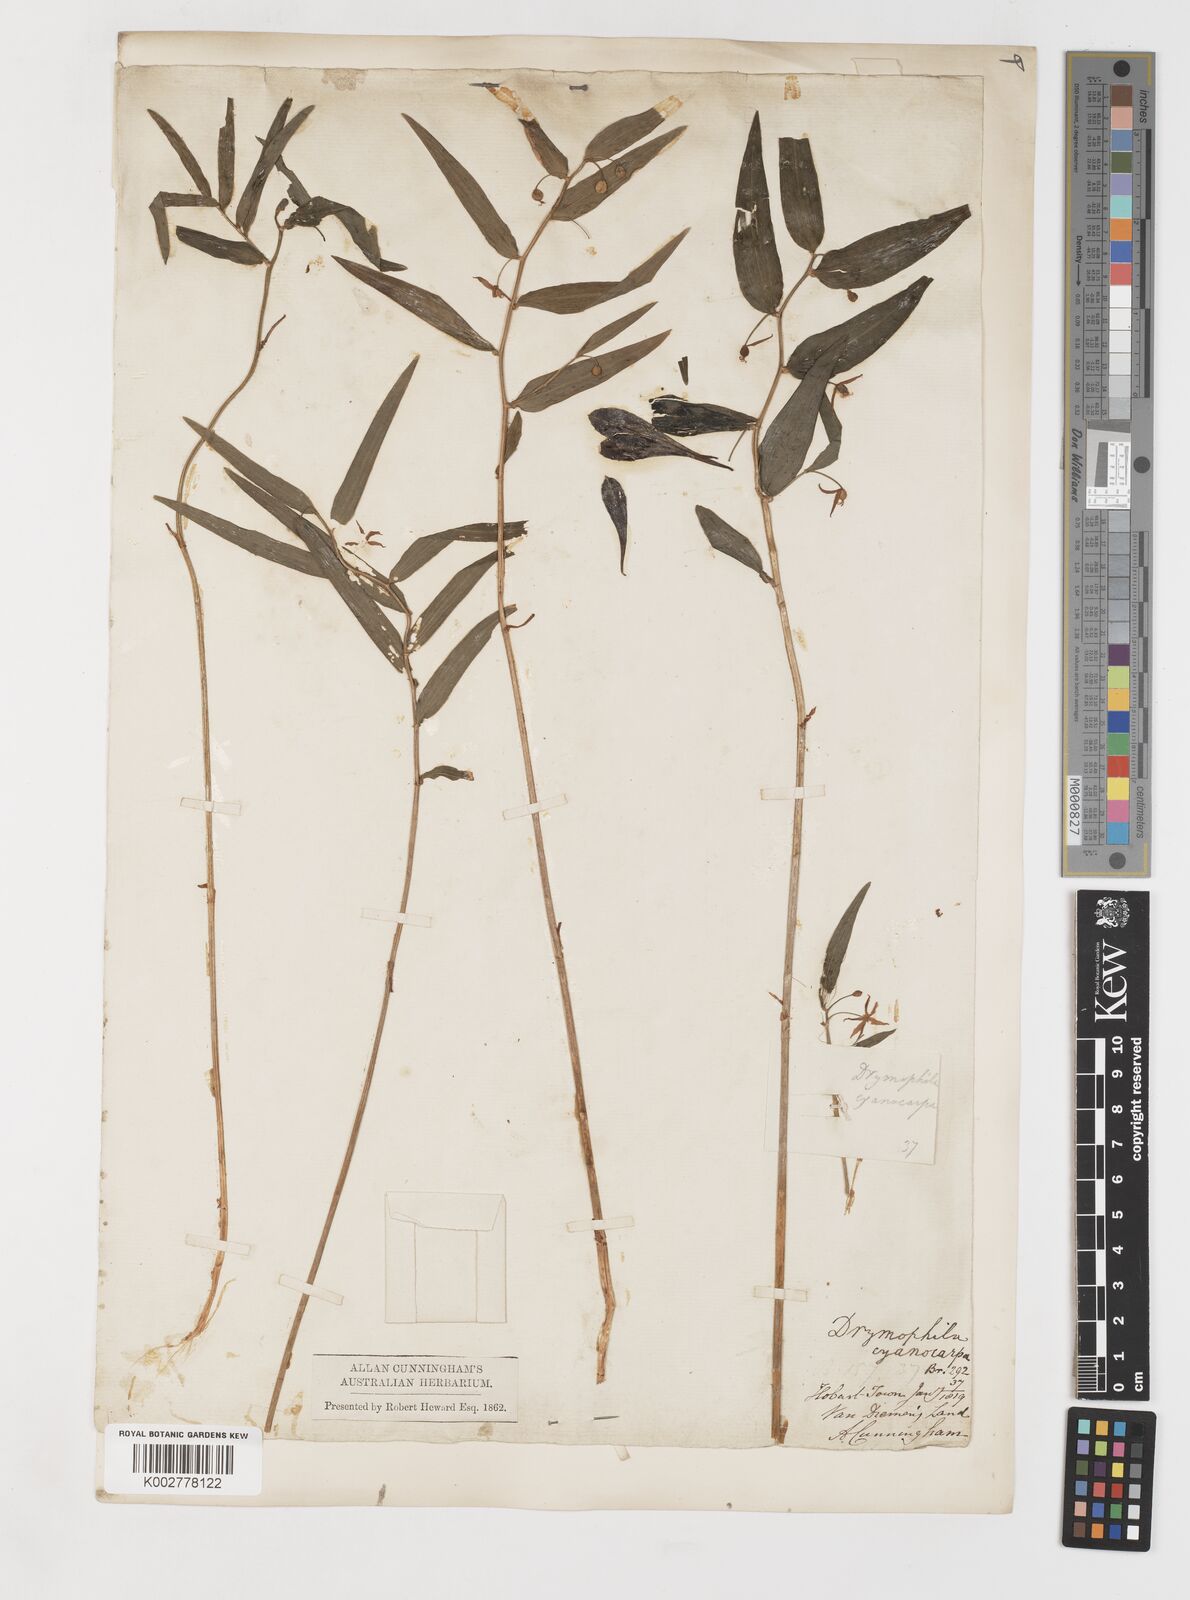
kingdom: Plantae
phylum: Tracheophyta
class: Liliopsida
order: Liliales
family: Alstroemeriaceae
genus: Drymophila
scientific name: Drymophila cyanocarpa
